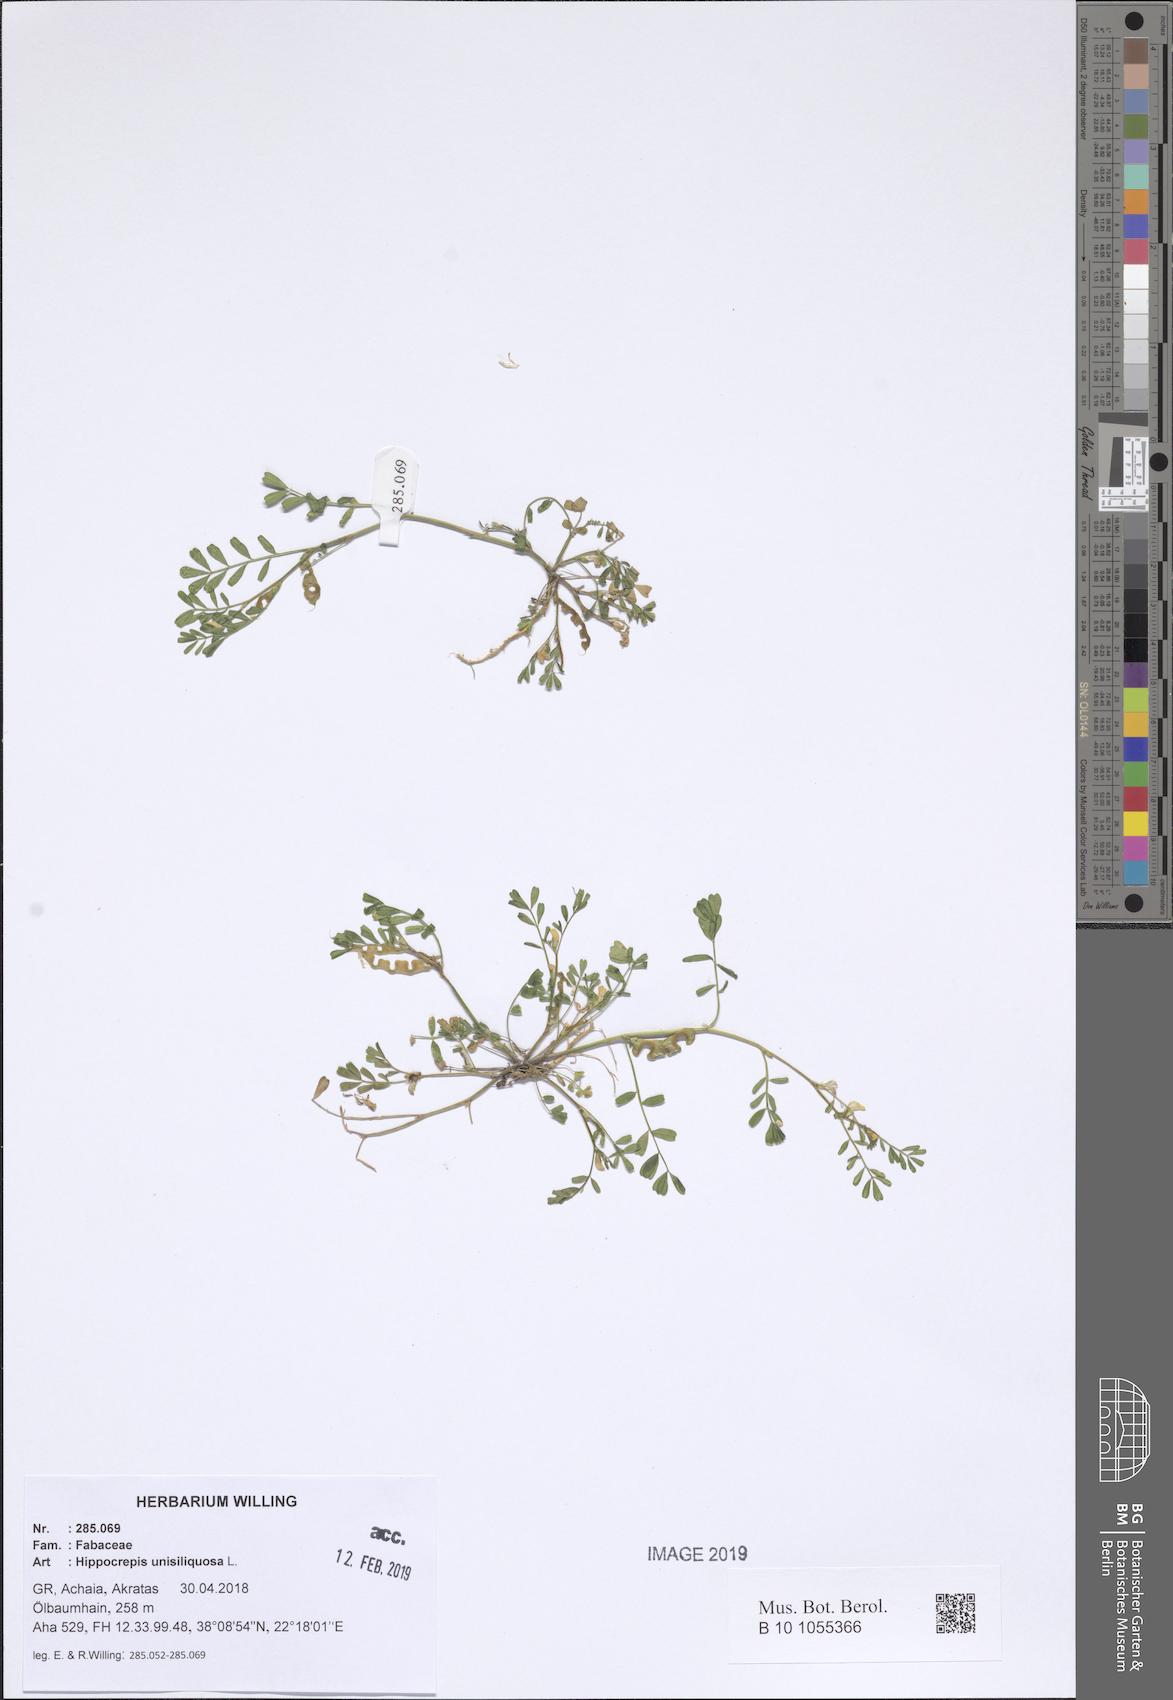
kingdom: Plantae
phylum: Tracheophyta
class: Magnoliopsida
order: Fabales
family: Fabaceae
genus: Hippocrepis
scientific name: Hippocrepis unisiliquosa
